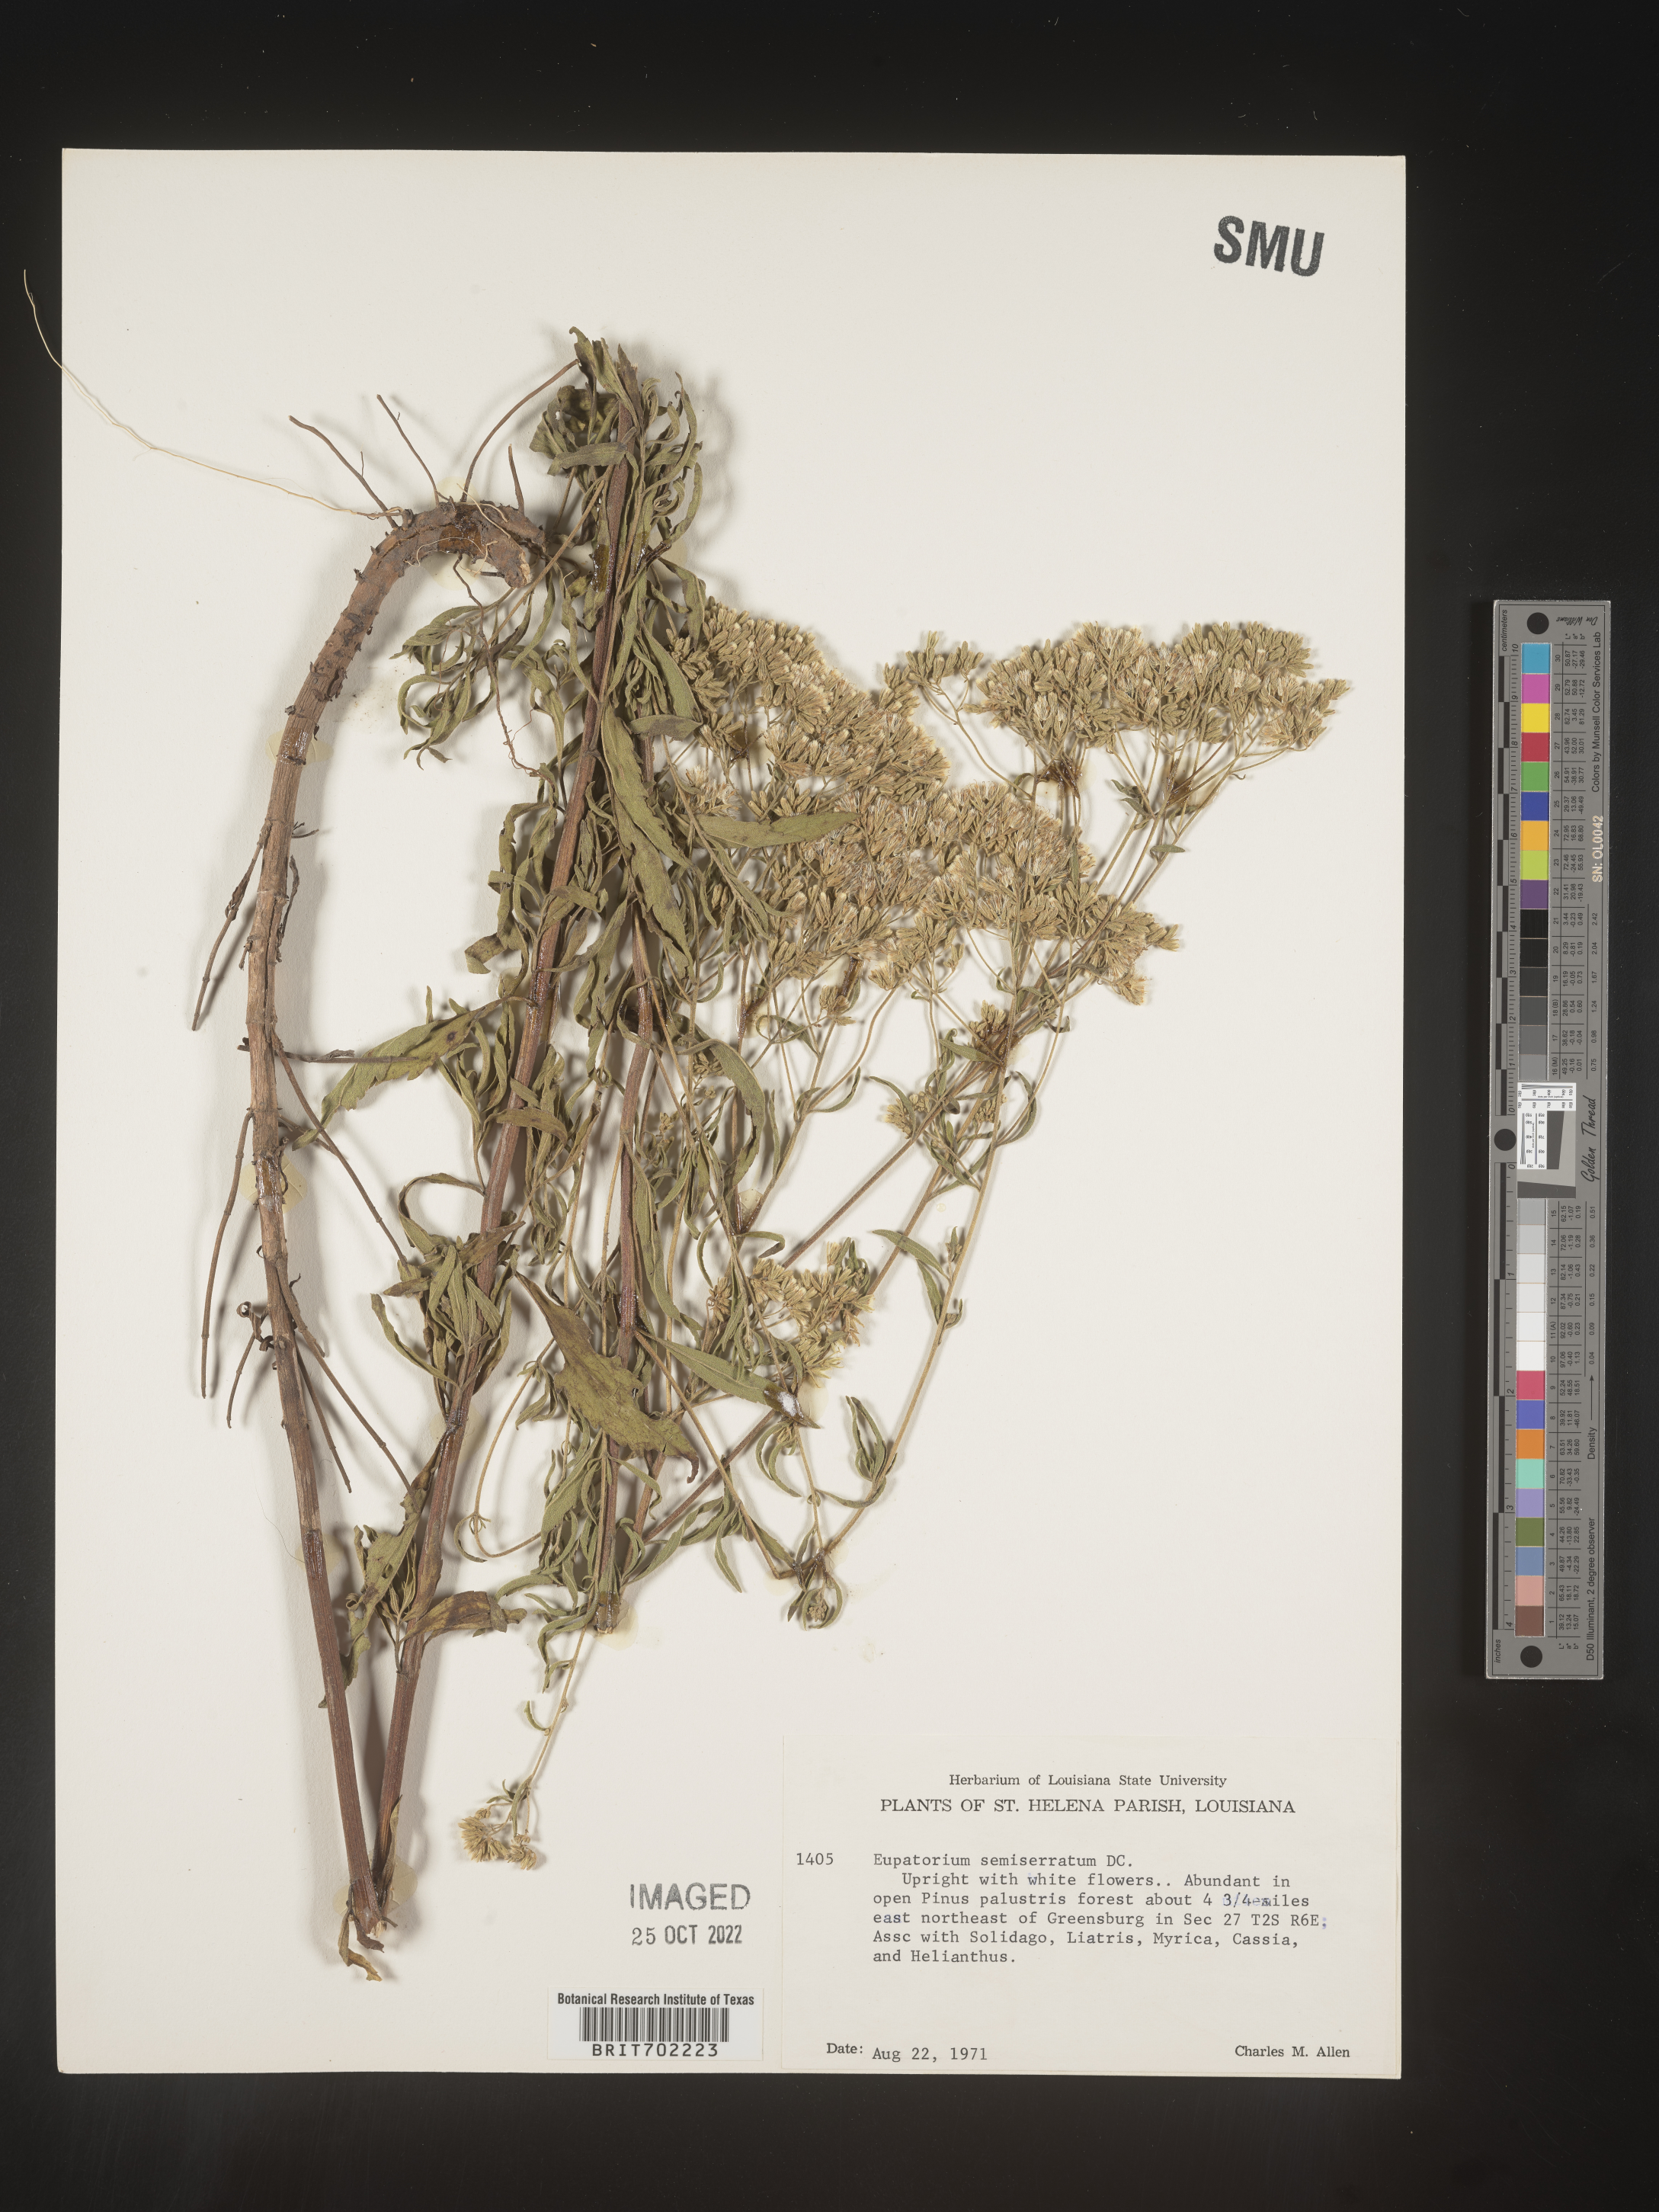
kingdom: Plantae
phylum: Tracheophyta
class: Magnoliopsida
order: Asterales
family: Asteraceae
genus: Eupatorium
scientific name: Eupatorium semiserratum
